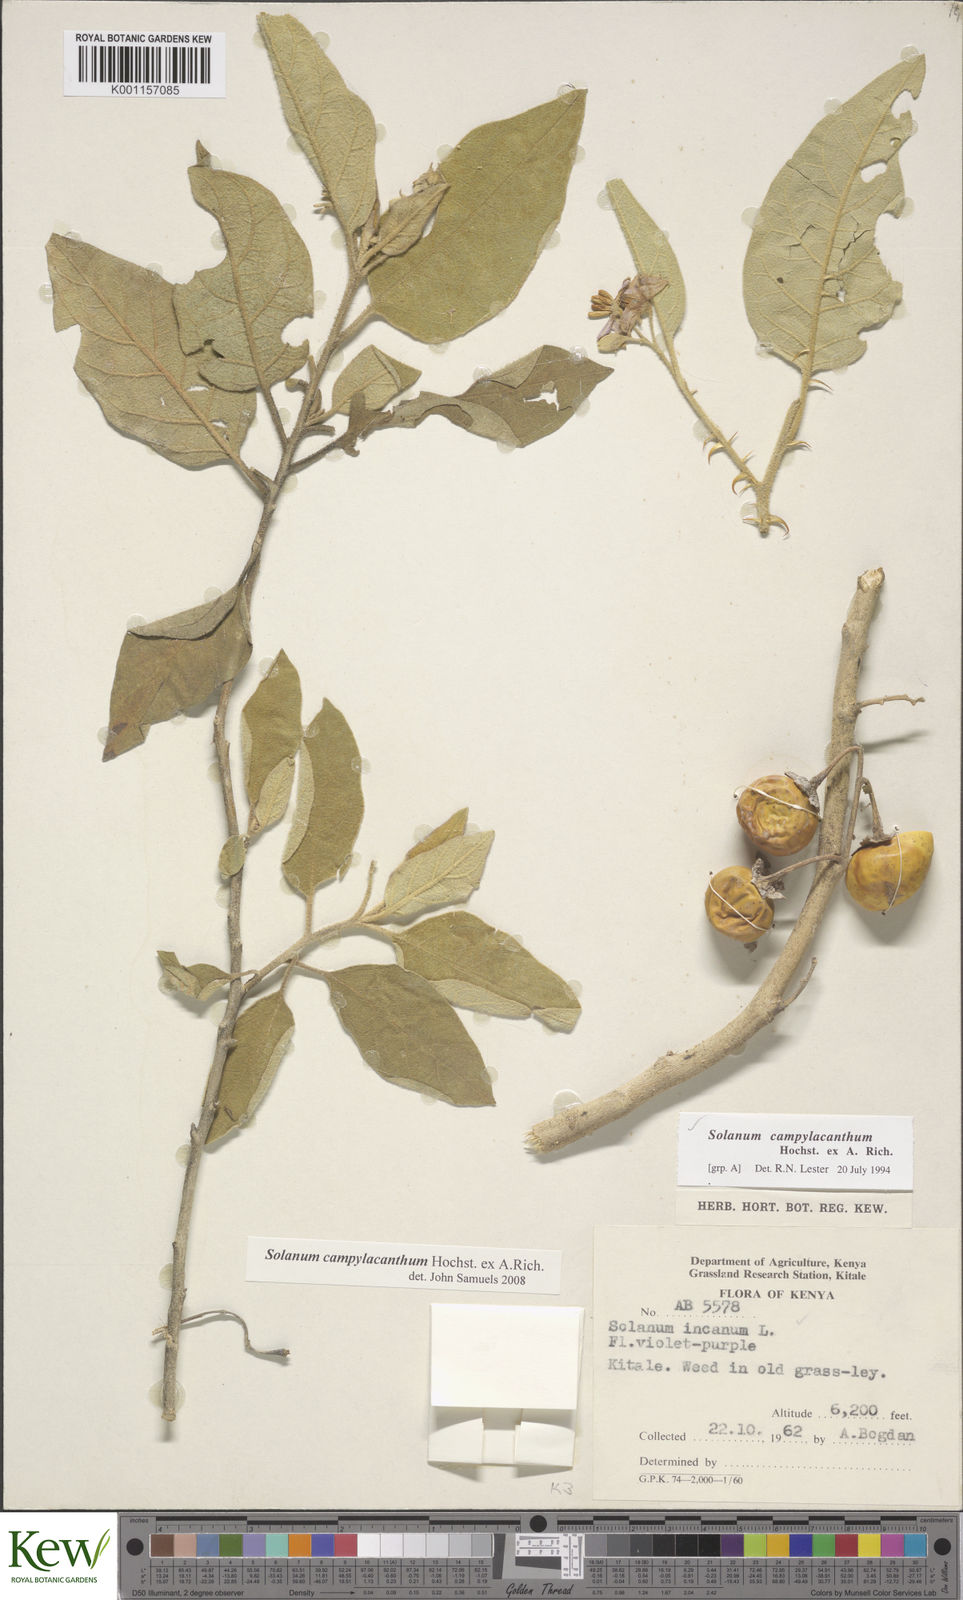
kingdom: Plantae
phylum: Tracheophyta
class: Magnoliopsida
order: Solanales
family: Solanaceae
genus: Solanum
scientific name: Solanum campylacanthum
